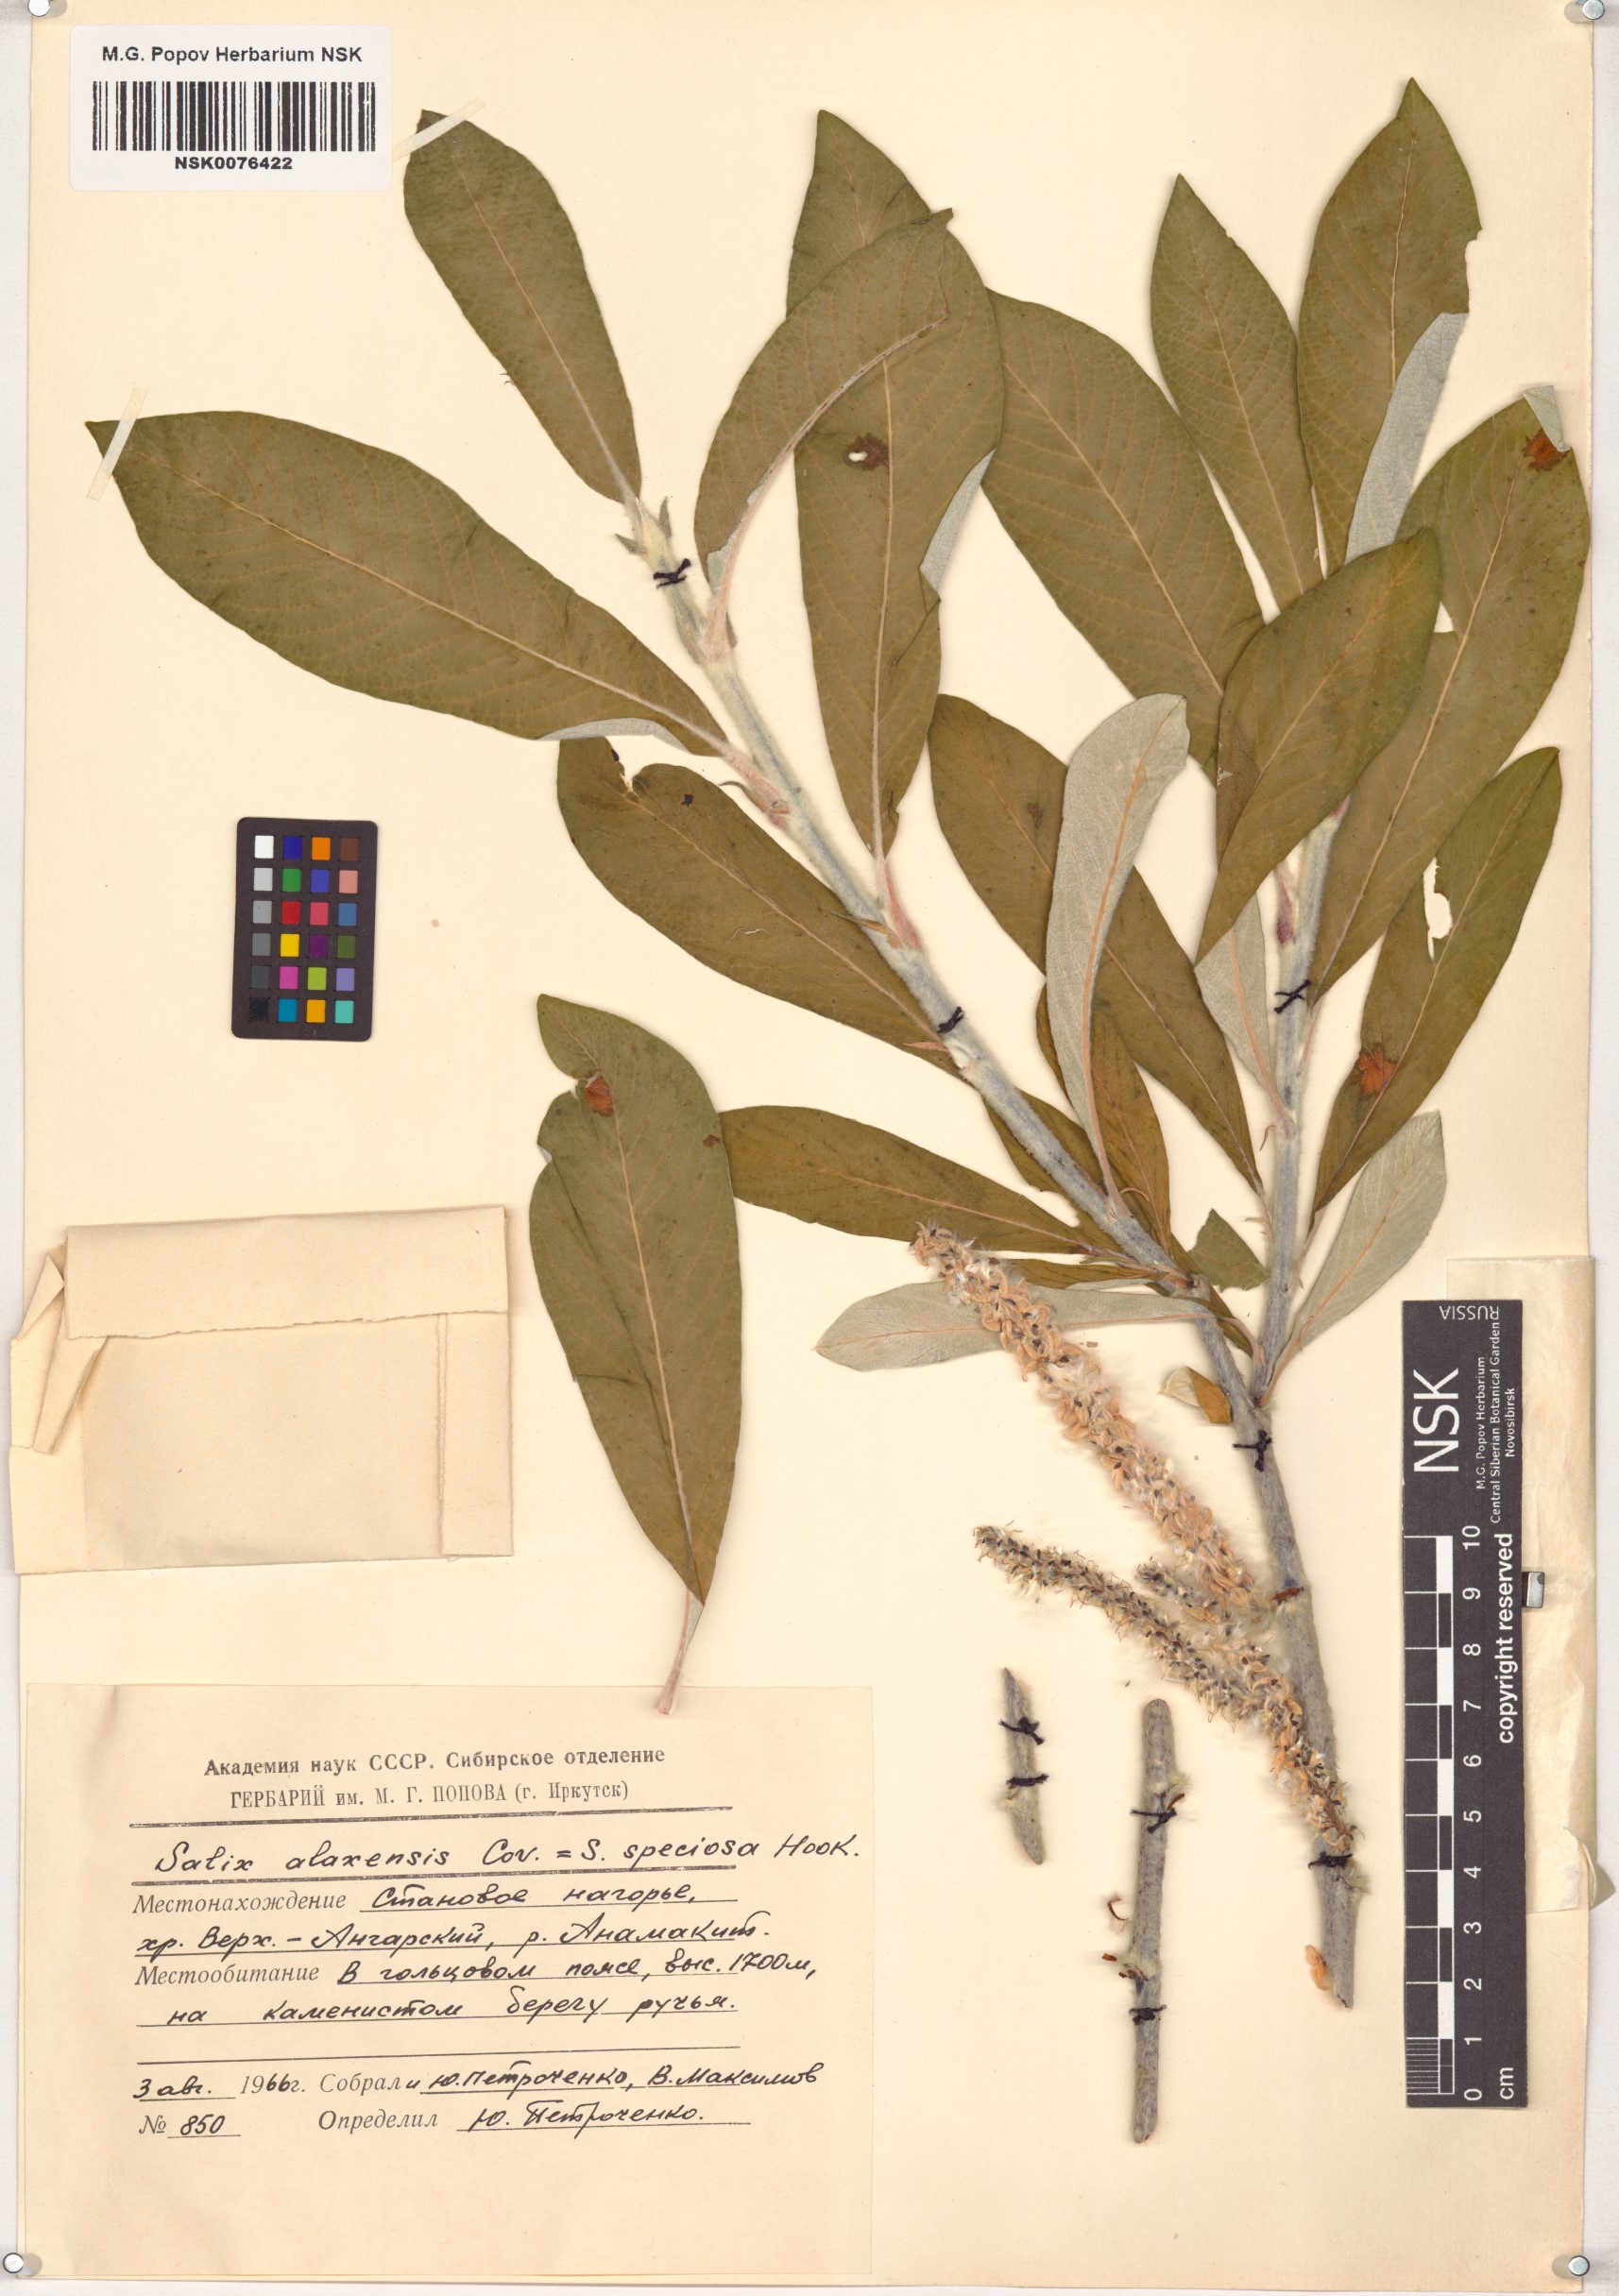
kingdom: Plantae
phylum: Tracheophyta
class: Magnoliopsida
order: Malpighiales
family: Salicaceae
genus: Salix
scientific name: Salix alaxensis
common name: Feltleaf willow
